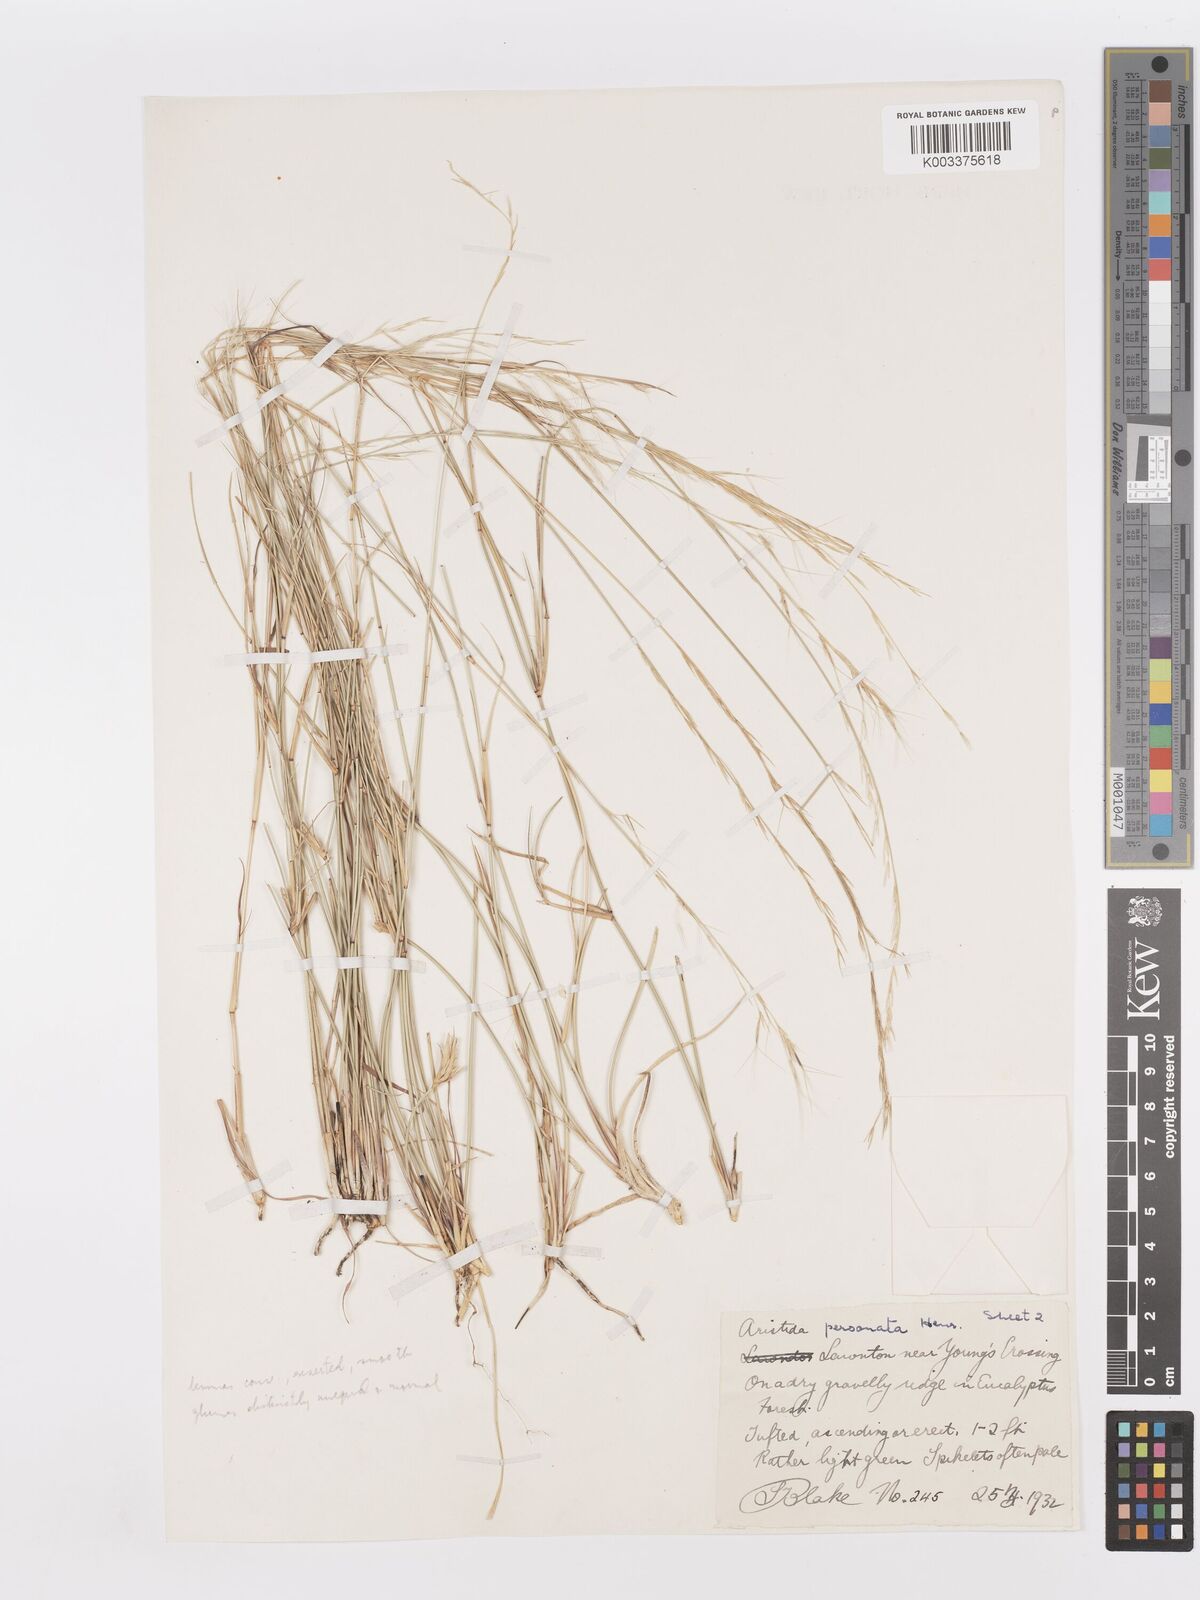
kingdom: Plantae
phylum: Tracheophyta
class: Liliopsida
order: Poales
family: Poaceae
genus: Aristida
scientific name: Aristida personata
